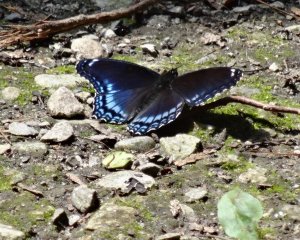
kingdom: Animalia
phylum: Arthropoda
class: Insecta
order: Lepidoptera
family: Nymphalidae
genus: Limenitis
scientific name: Limenitis astyanax
